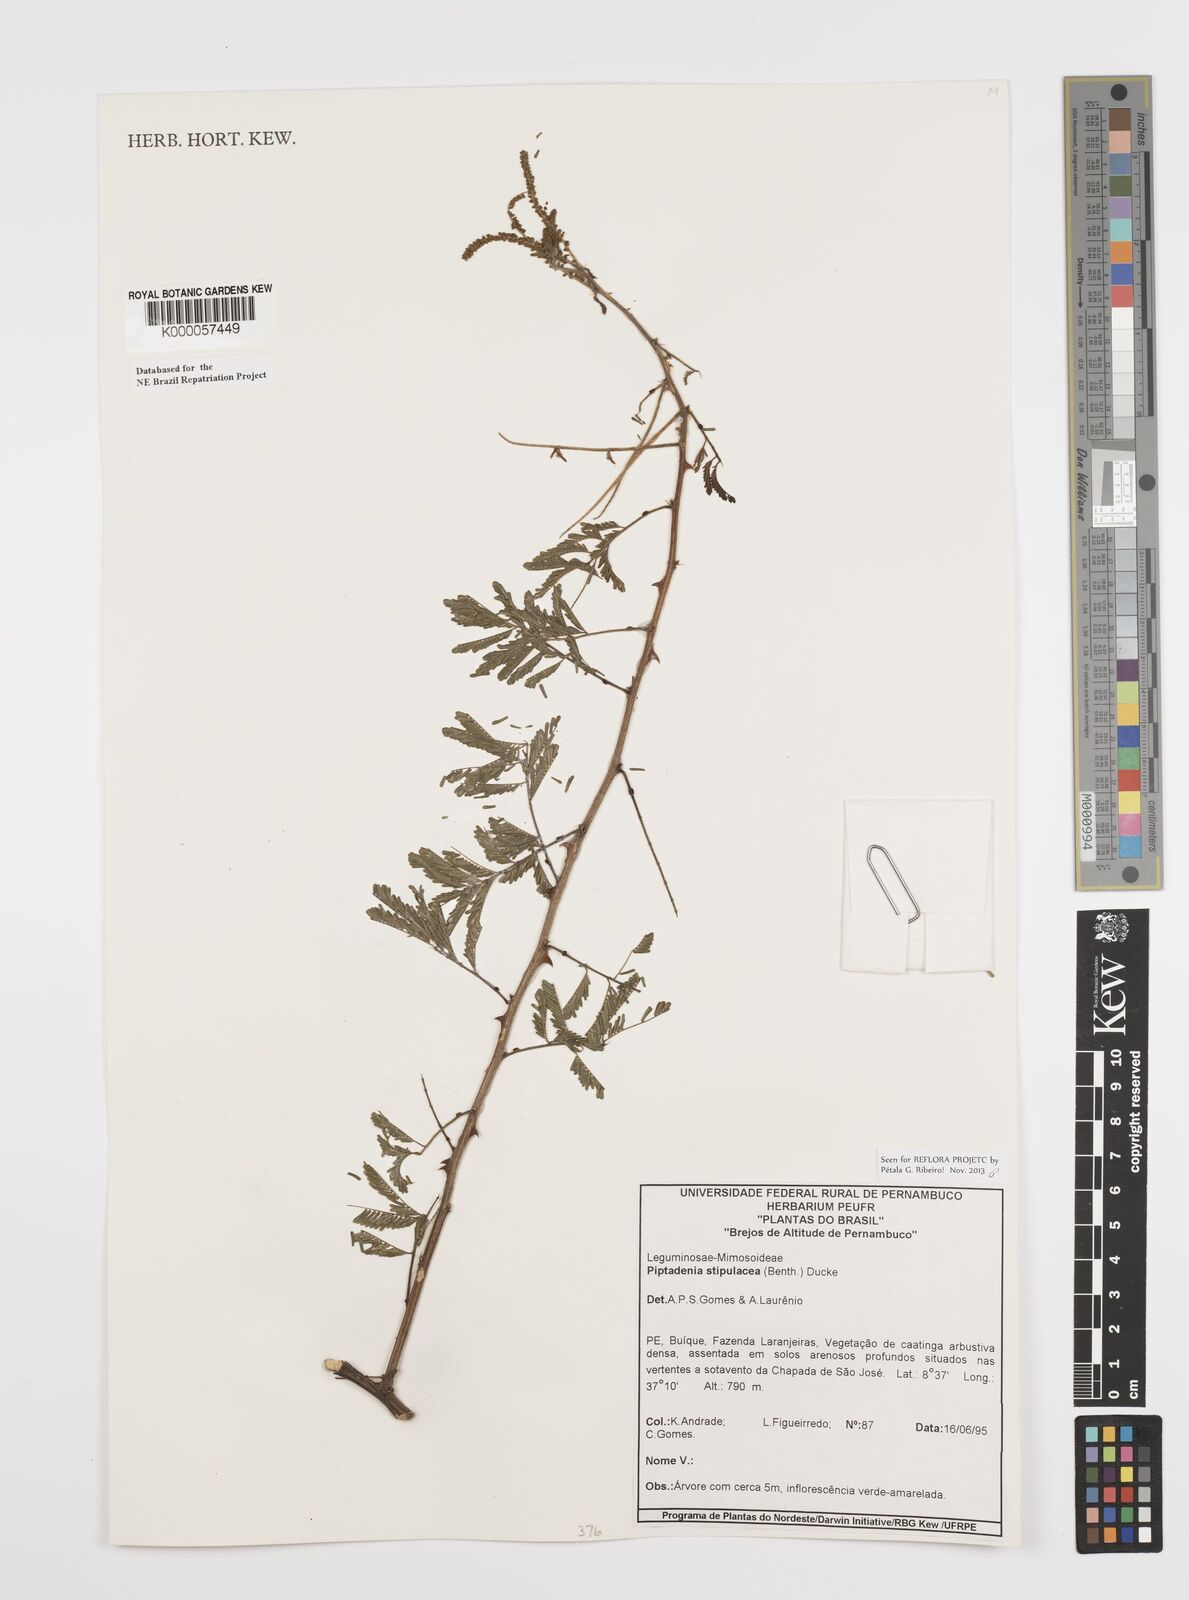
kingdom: Plantae
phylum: Tracheophyta
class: Magnoliopsida
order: Fabales
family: Fabaceae
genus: Piptadenia
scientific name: Piptadenia retusa
